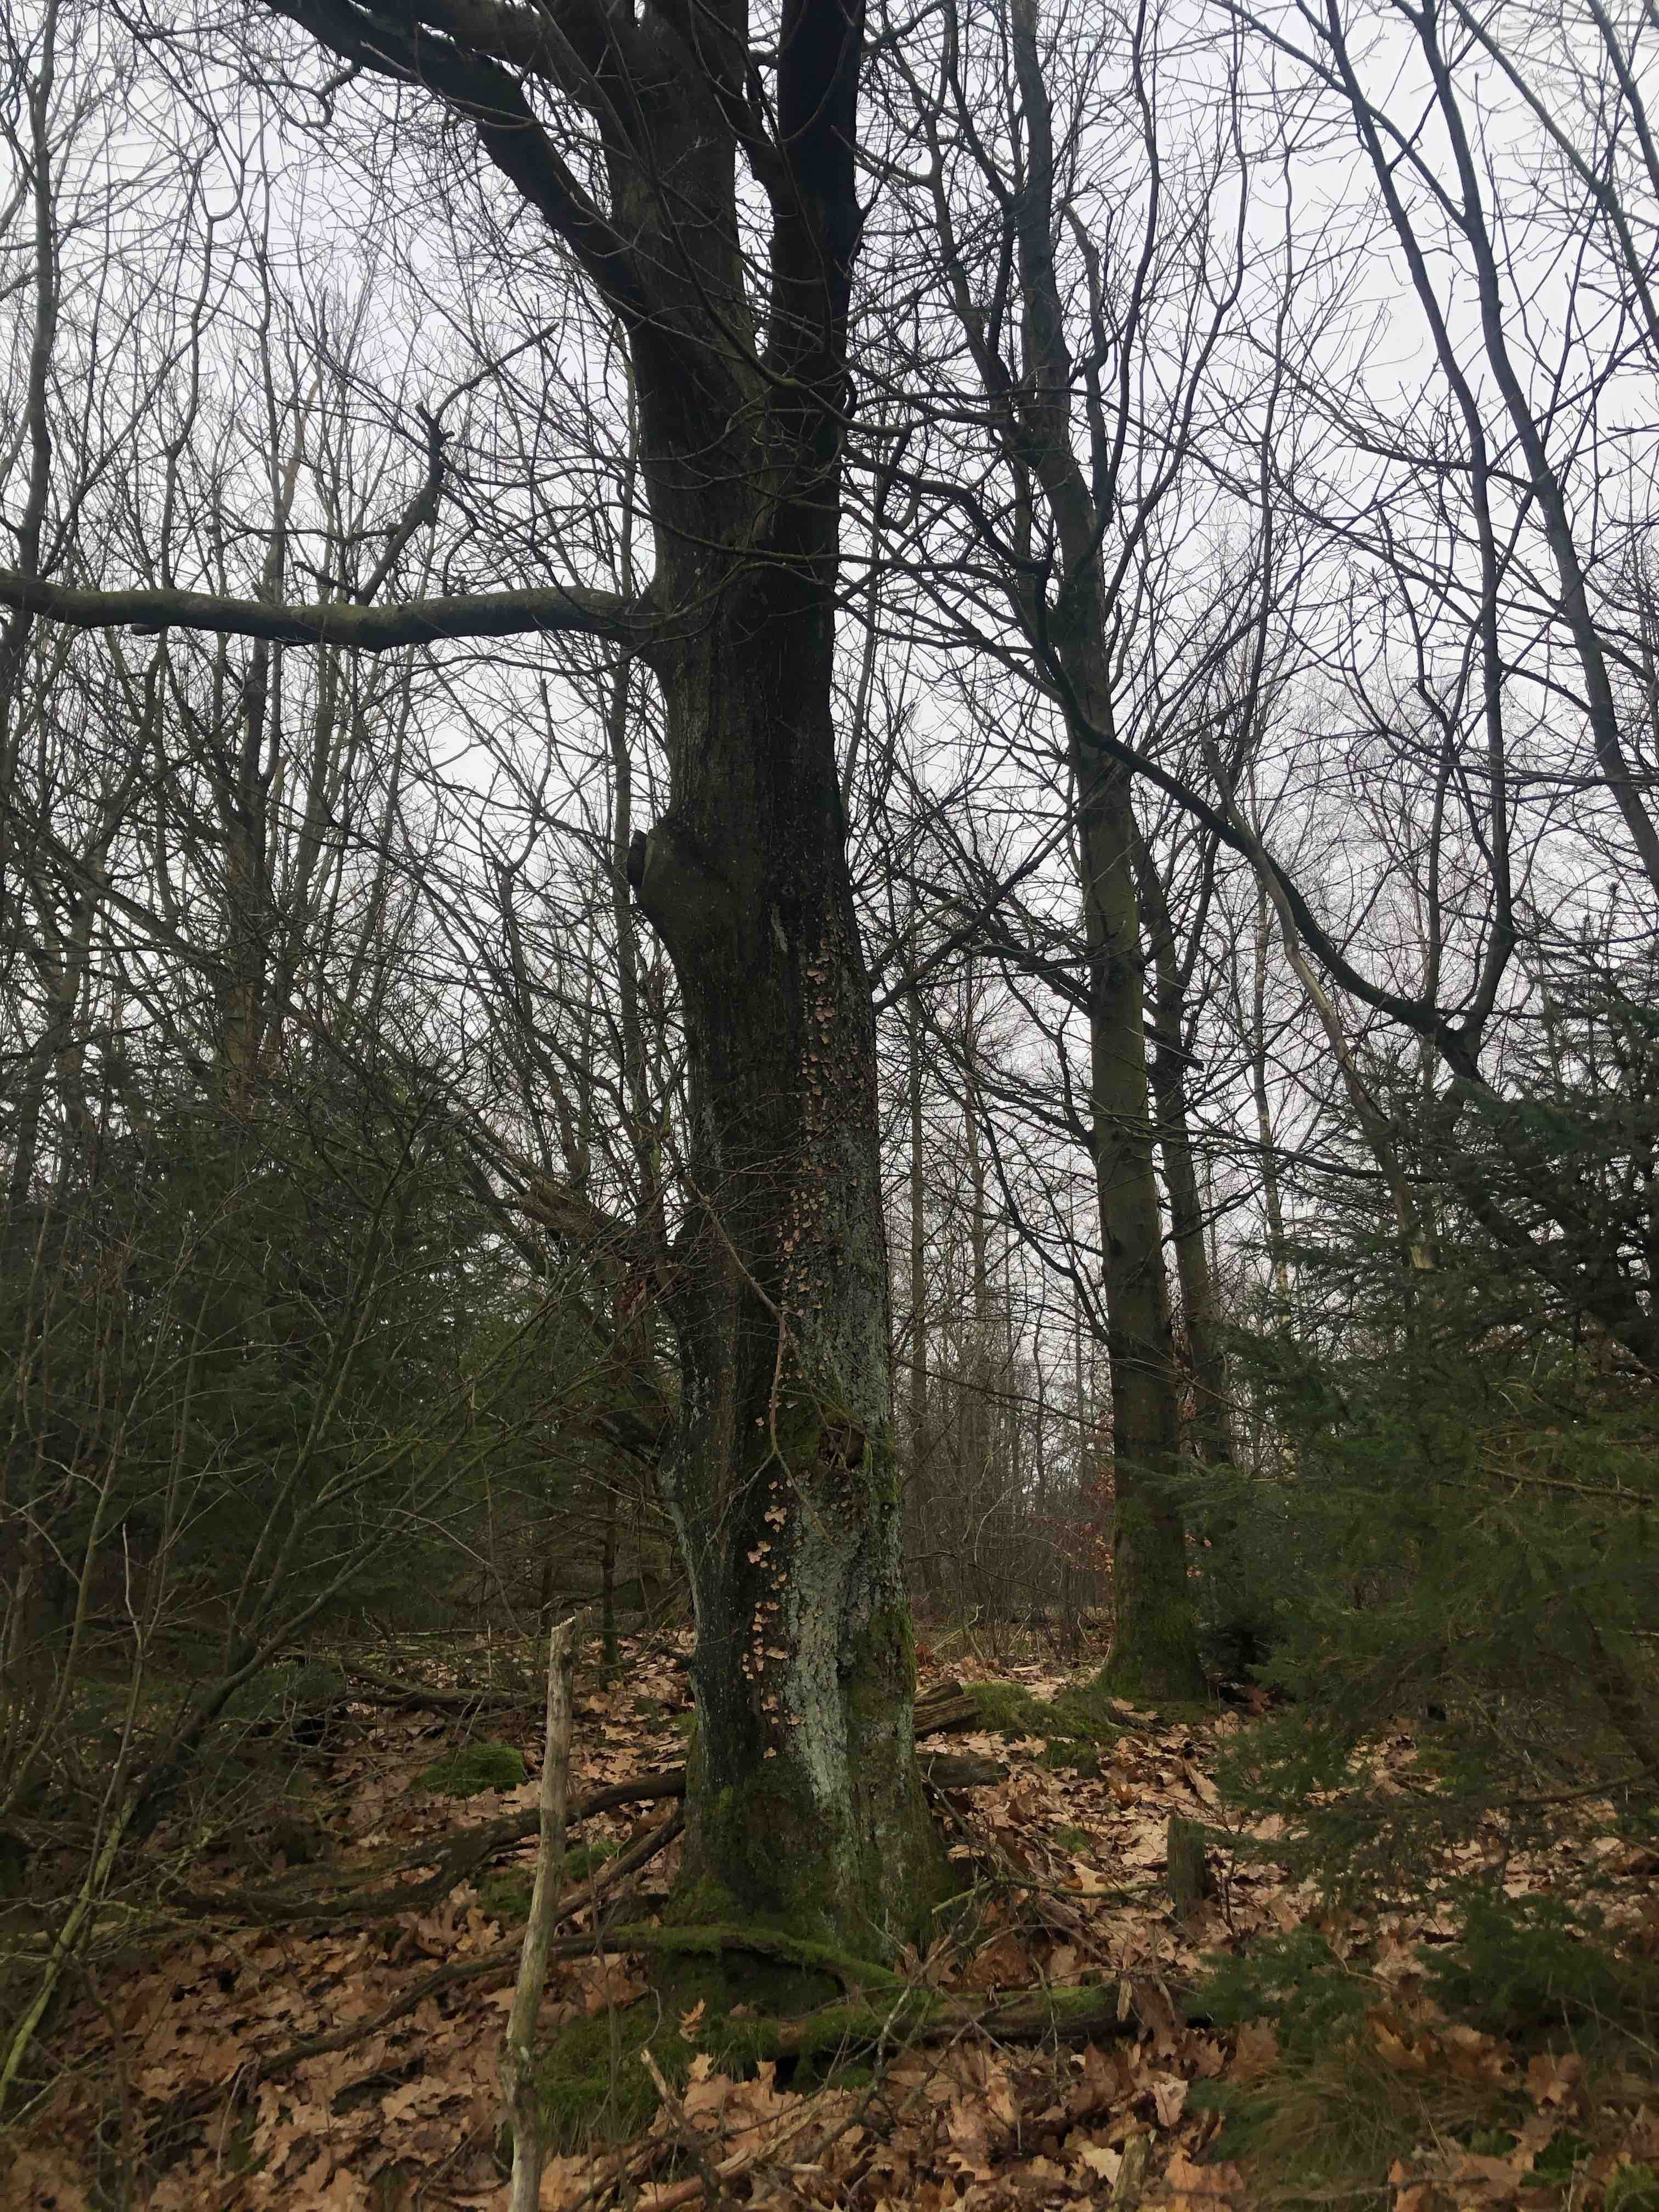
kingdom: Fungi
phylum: Basidiomycota
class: Agaricomycetes
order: Russulales
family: Stereaceae
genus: Stereum
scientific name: Stereum rugosum
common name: rynket lædersvamp
